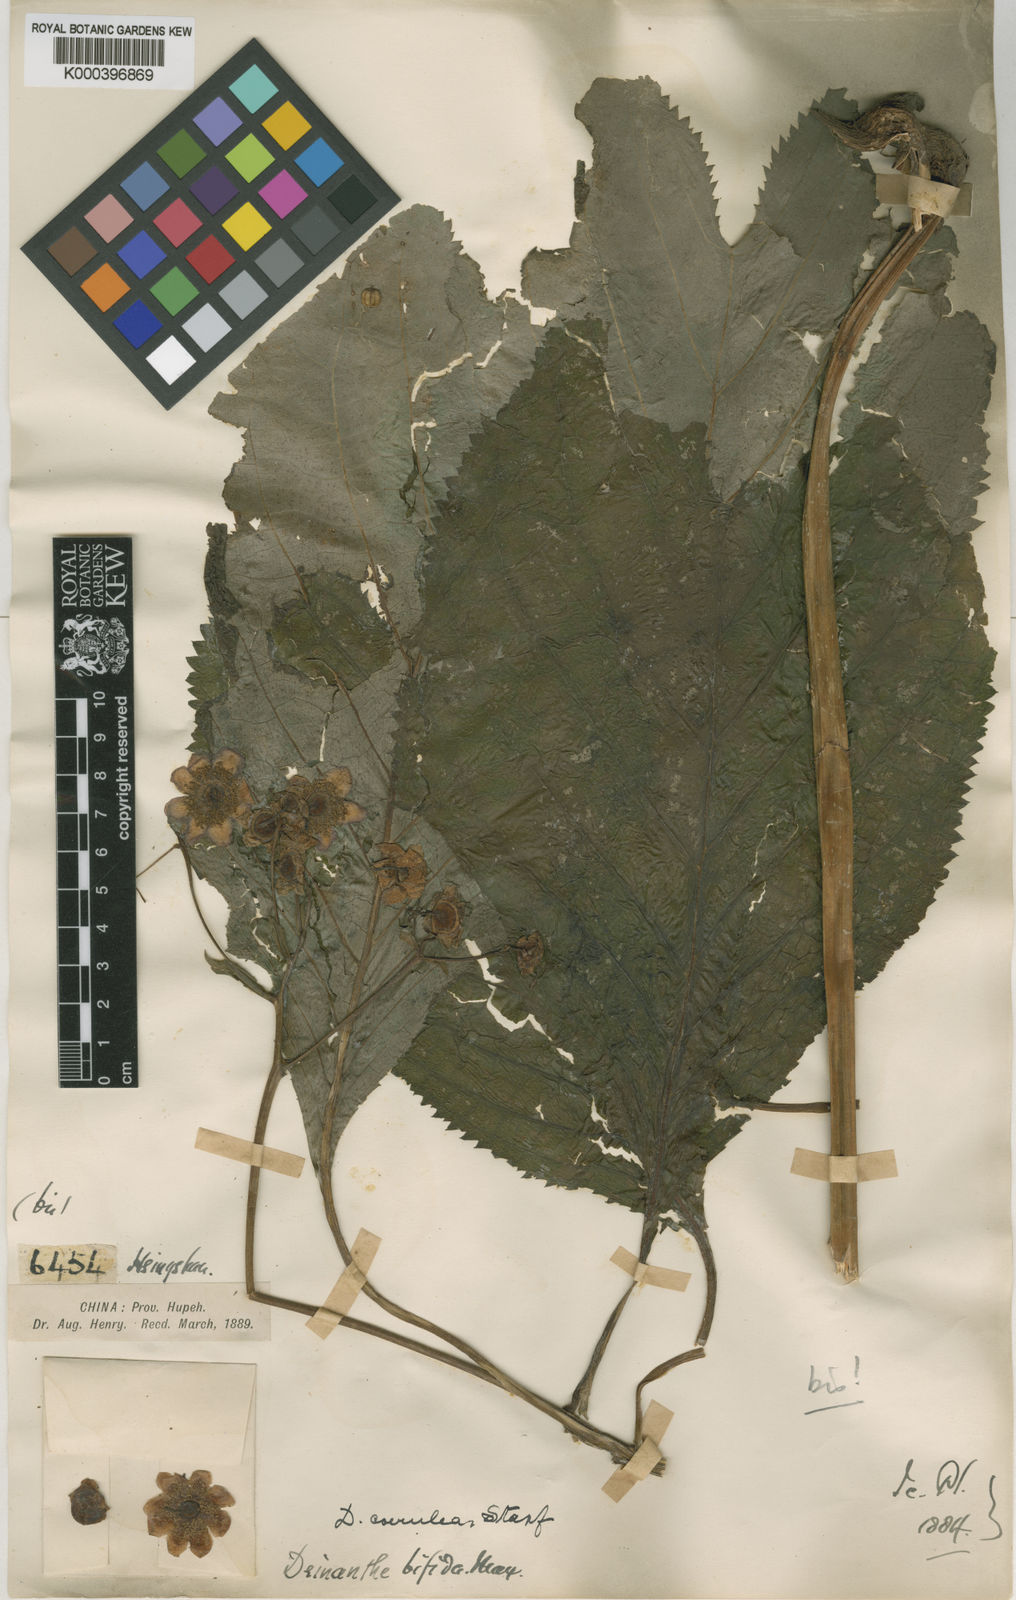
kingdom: Plantae
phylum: Tracheophyta
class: Magnoliopsida
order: Cornales
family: Hydrangeaceae
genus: Hydrangea
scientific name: Hydrangea caerulea
